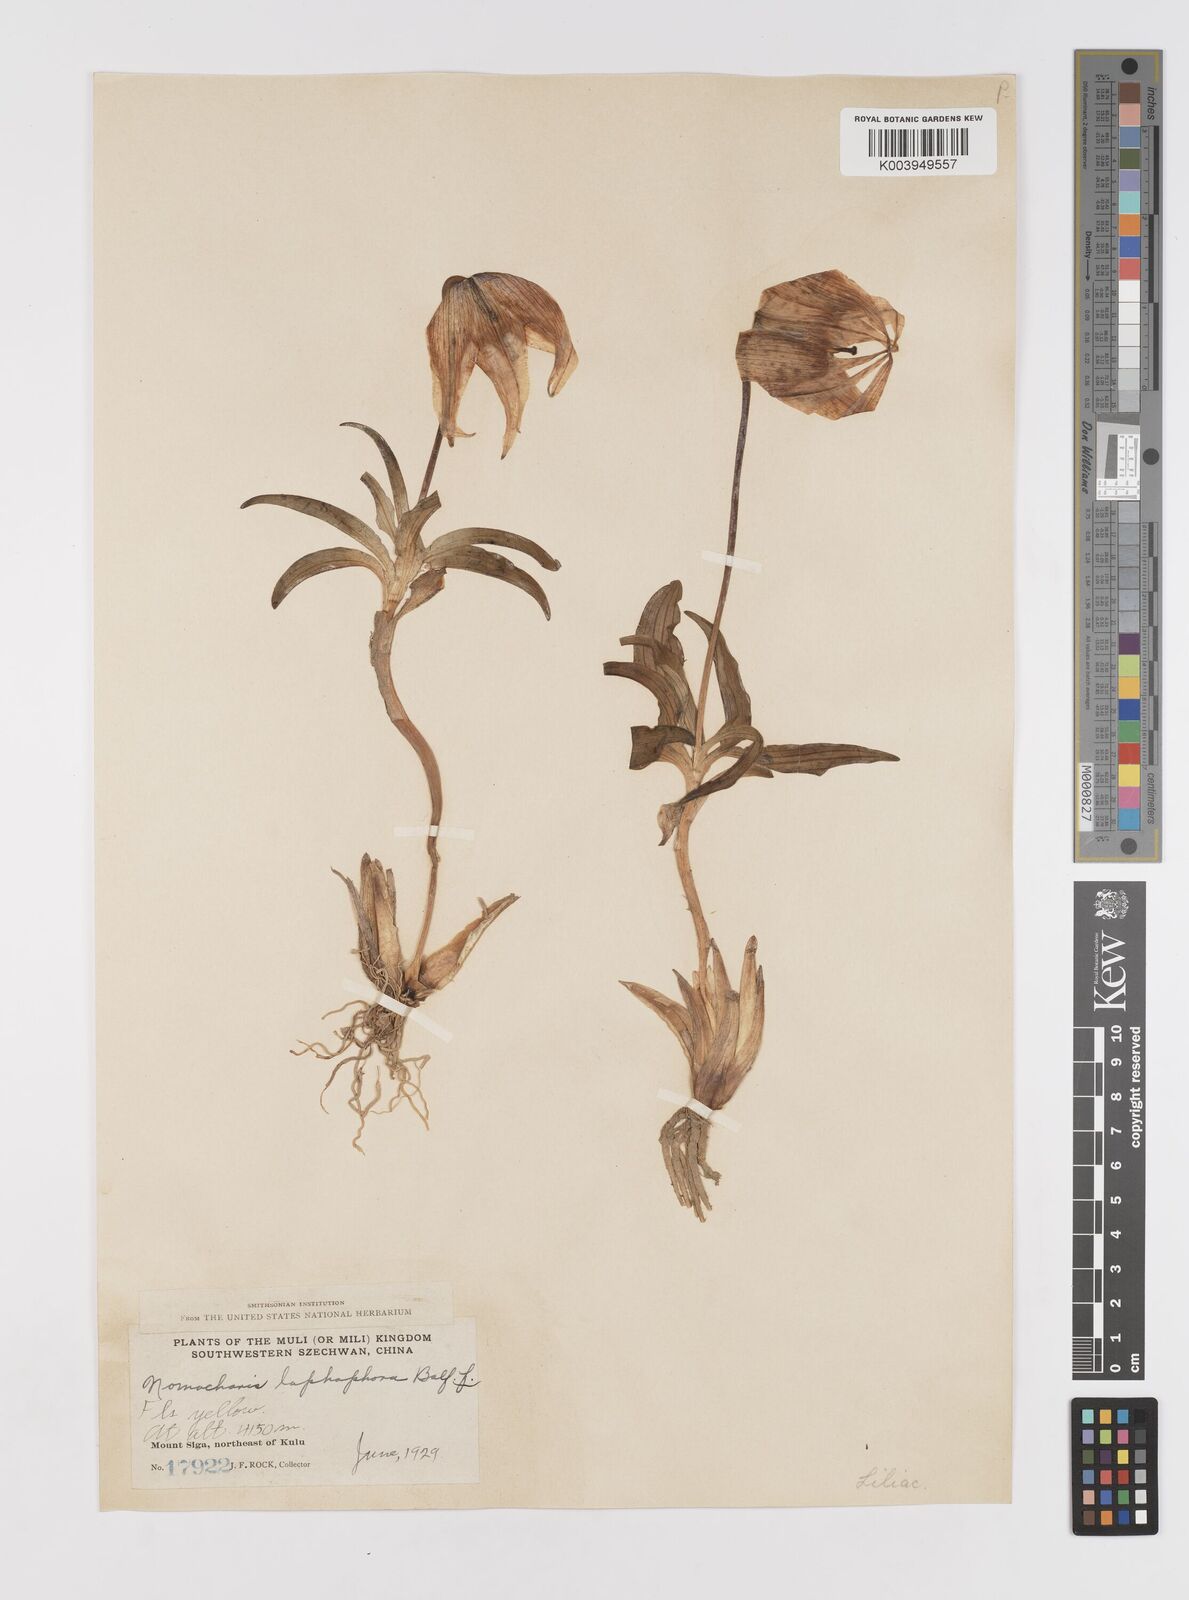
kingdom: Plantae
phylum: Tracheophyta
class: Liliopsida
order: Liliales
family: Liliaceae
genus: Lilium
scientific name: Lilium lophophorum
